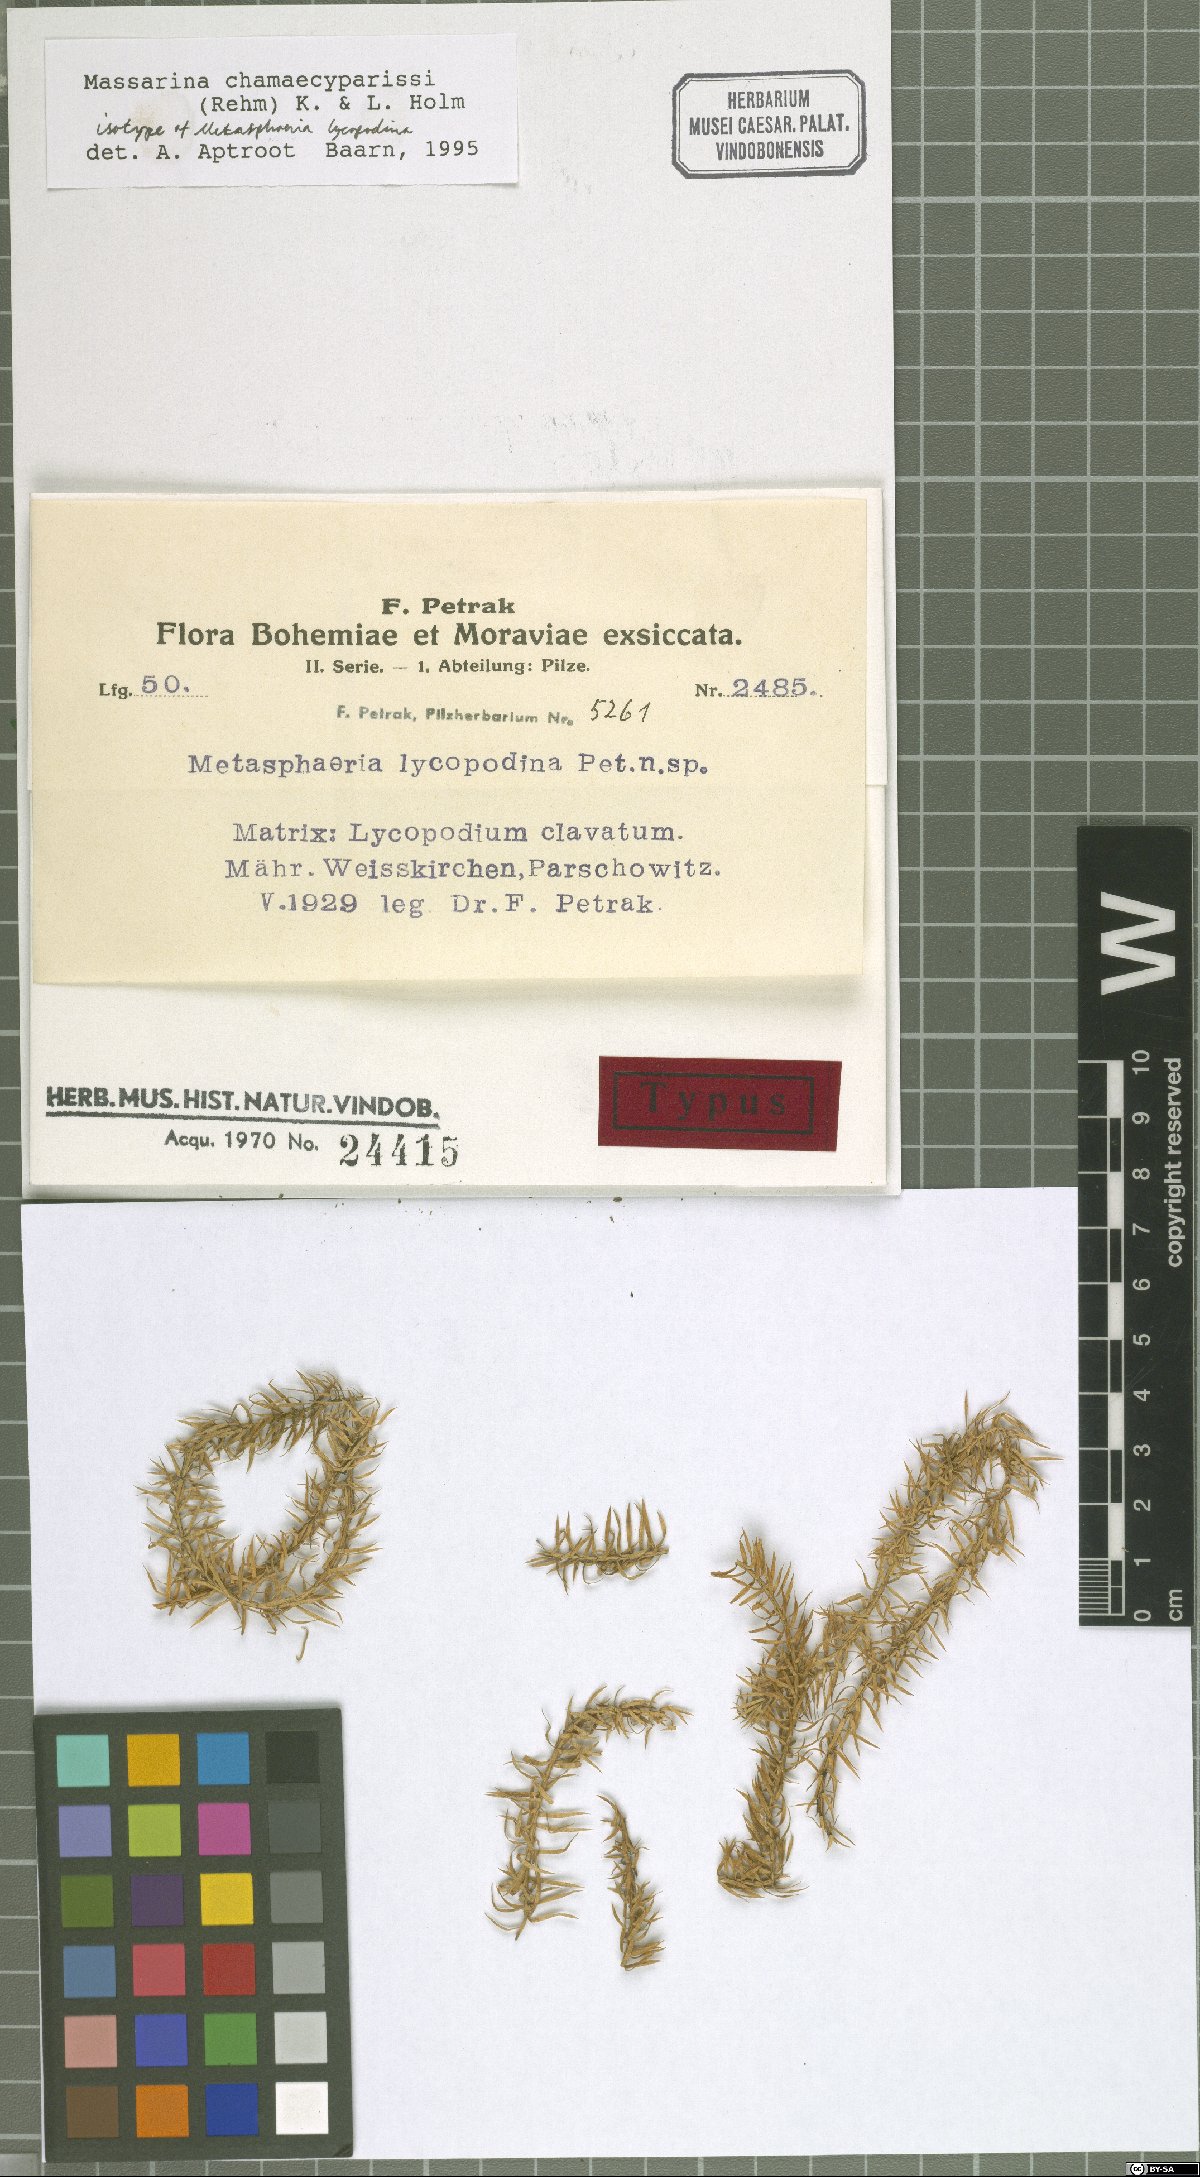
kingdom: Fungi
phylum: Ascomycota
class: Dothideomycetes
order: Dothideales
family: Saccotheciaceae
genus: Metasphaeria
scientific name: Metasphaeria lycopodina
